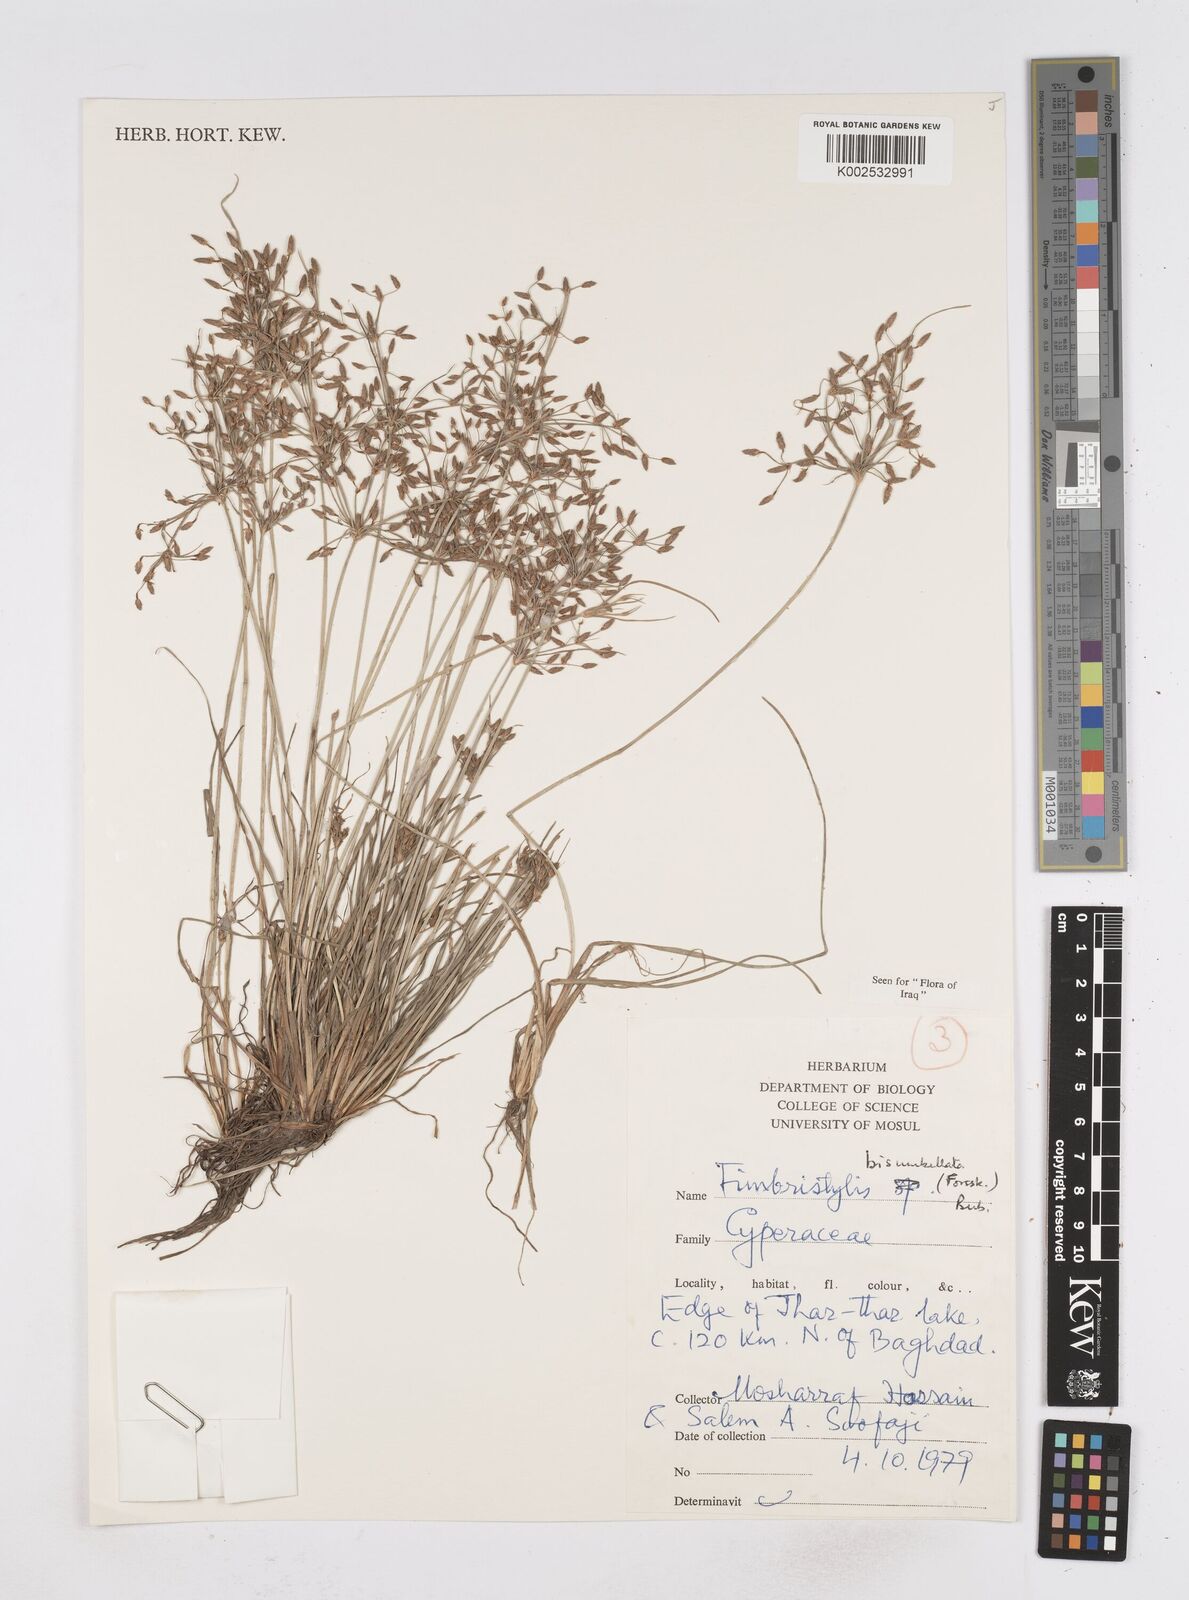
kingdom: Plantae
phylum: Tracheophyta
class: Liliopsida
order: Poales
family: Cyperaceae
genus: Fimbristylis
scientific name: Fimbristylis bisumbellata
